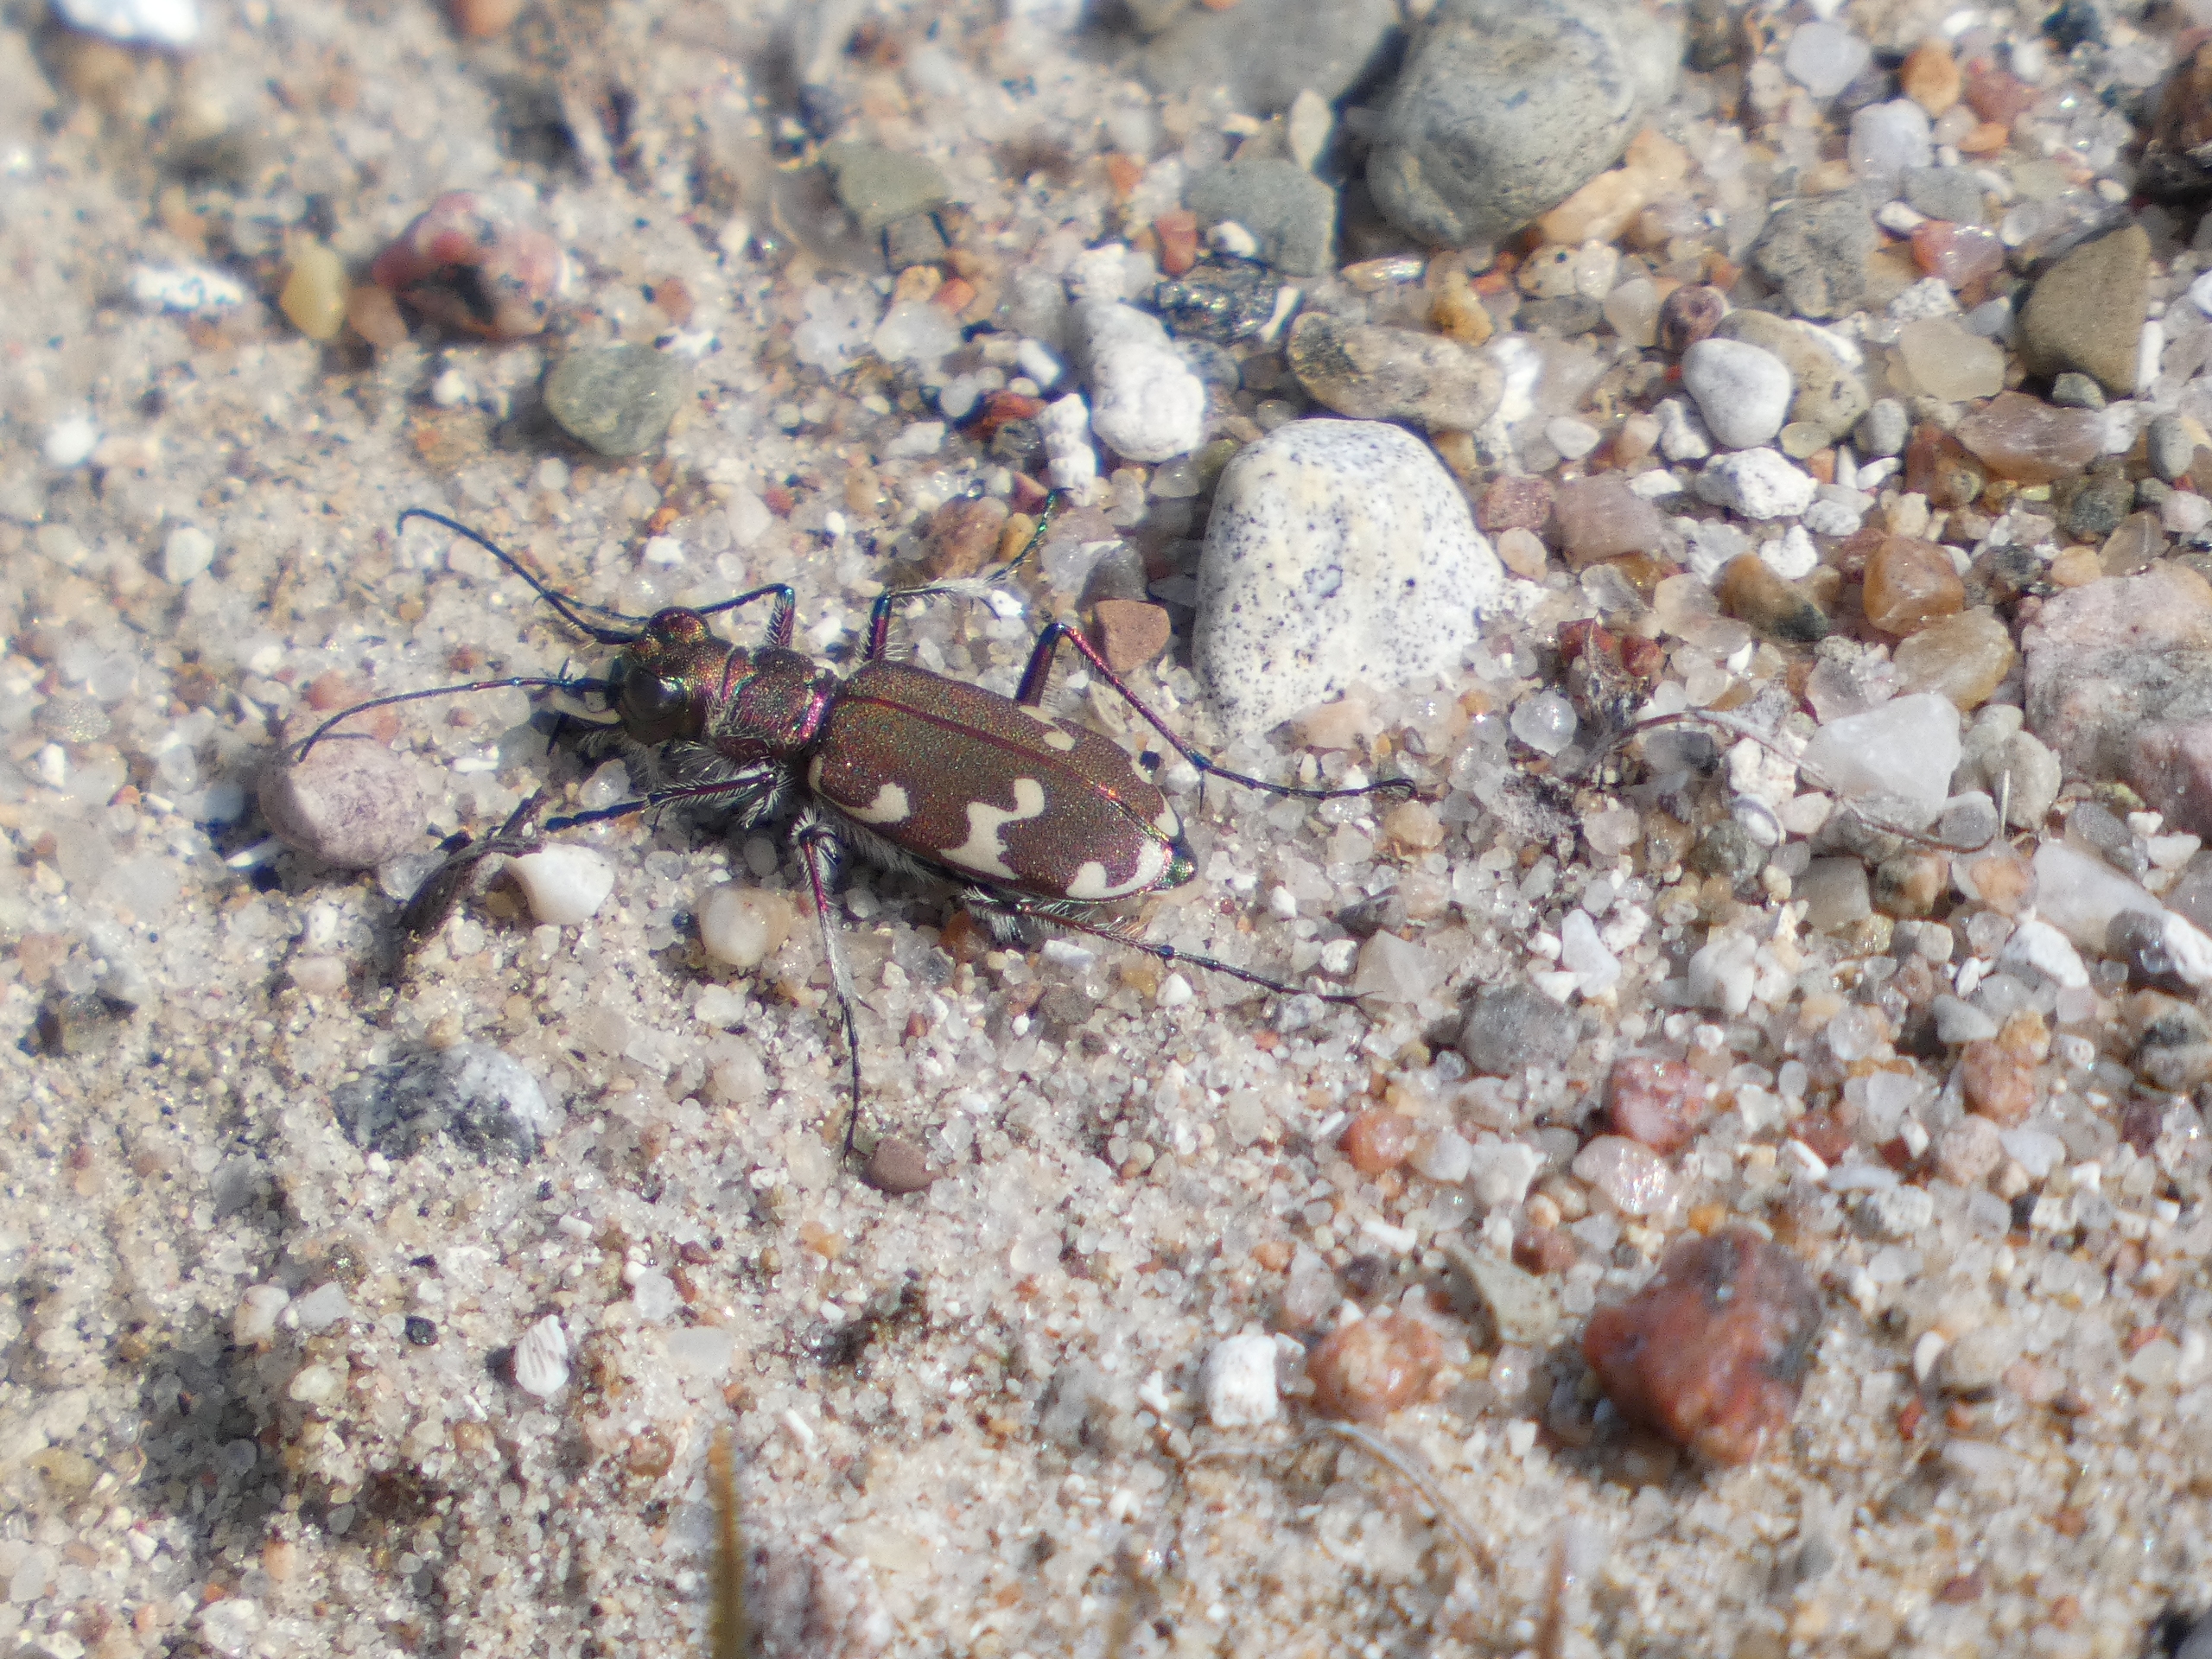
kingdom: Animalia
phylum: Arthropoda
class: Insecta
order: Coleoptera
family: Carabidae
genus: Cicindela
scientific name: Cicindela hybrida
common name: Brun sandspringer
